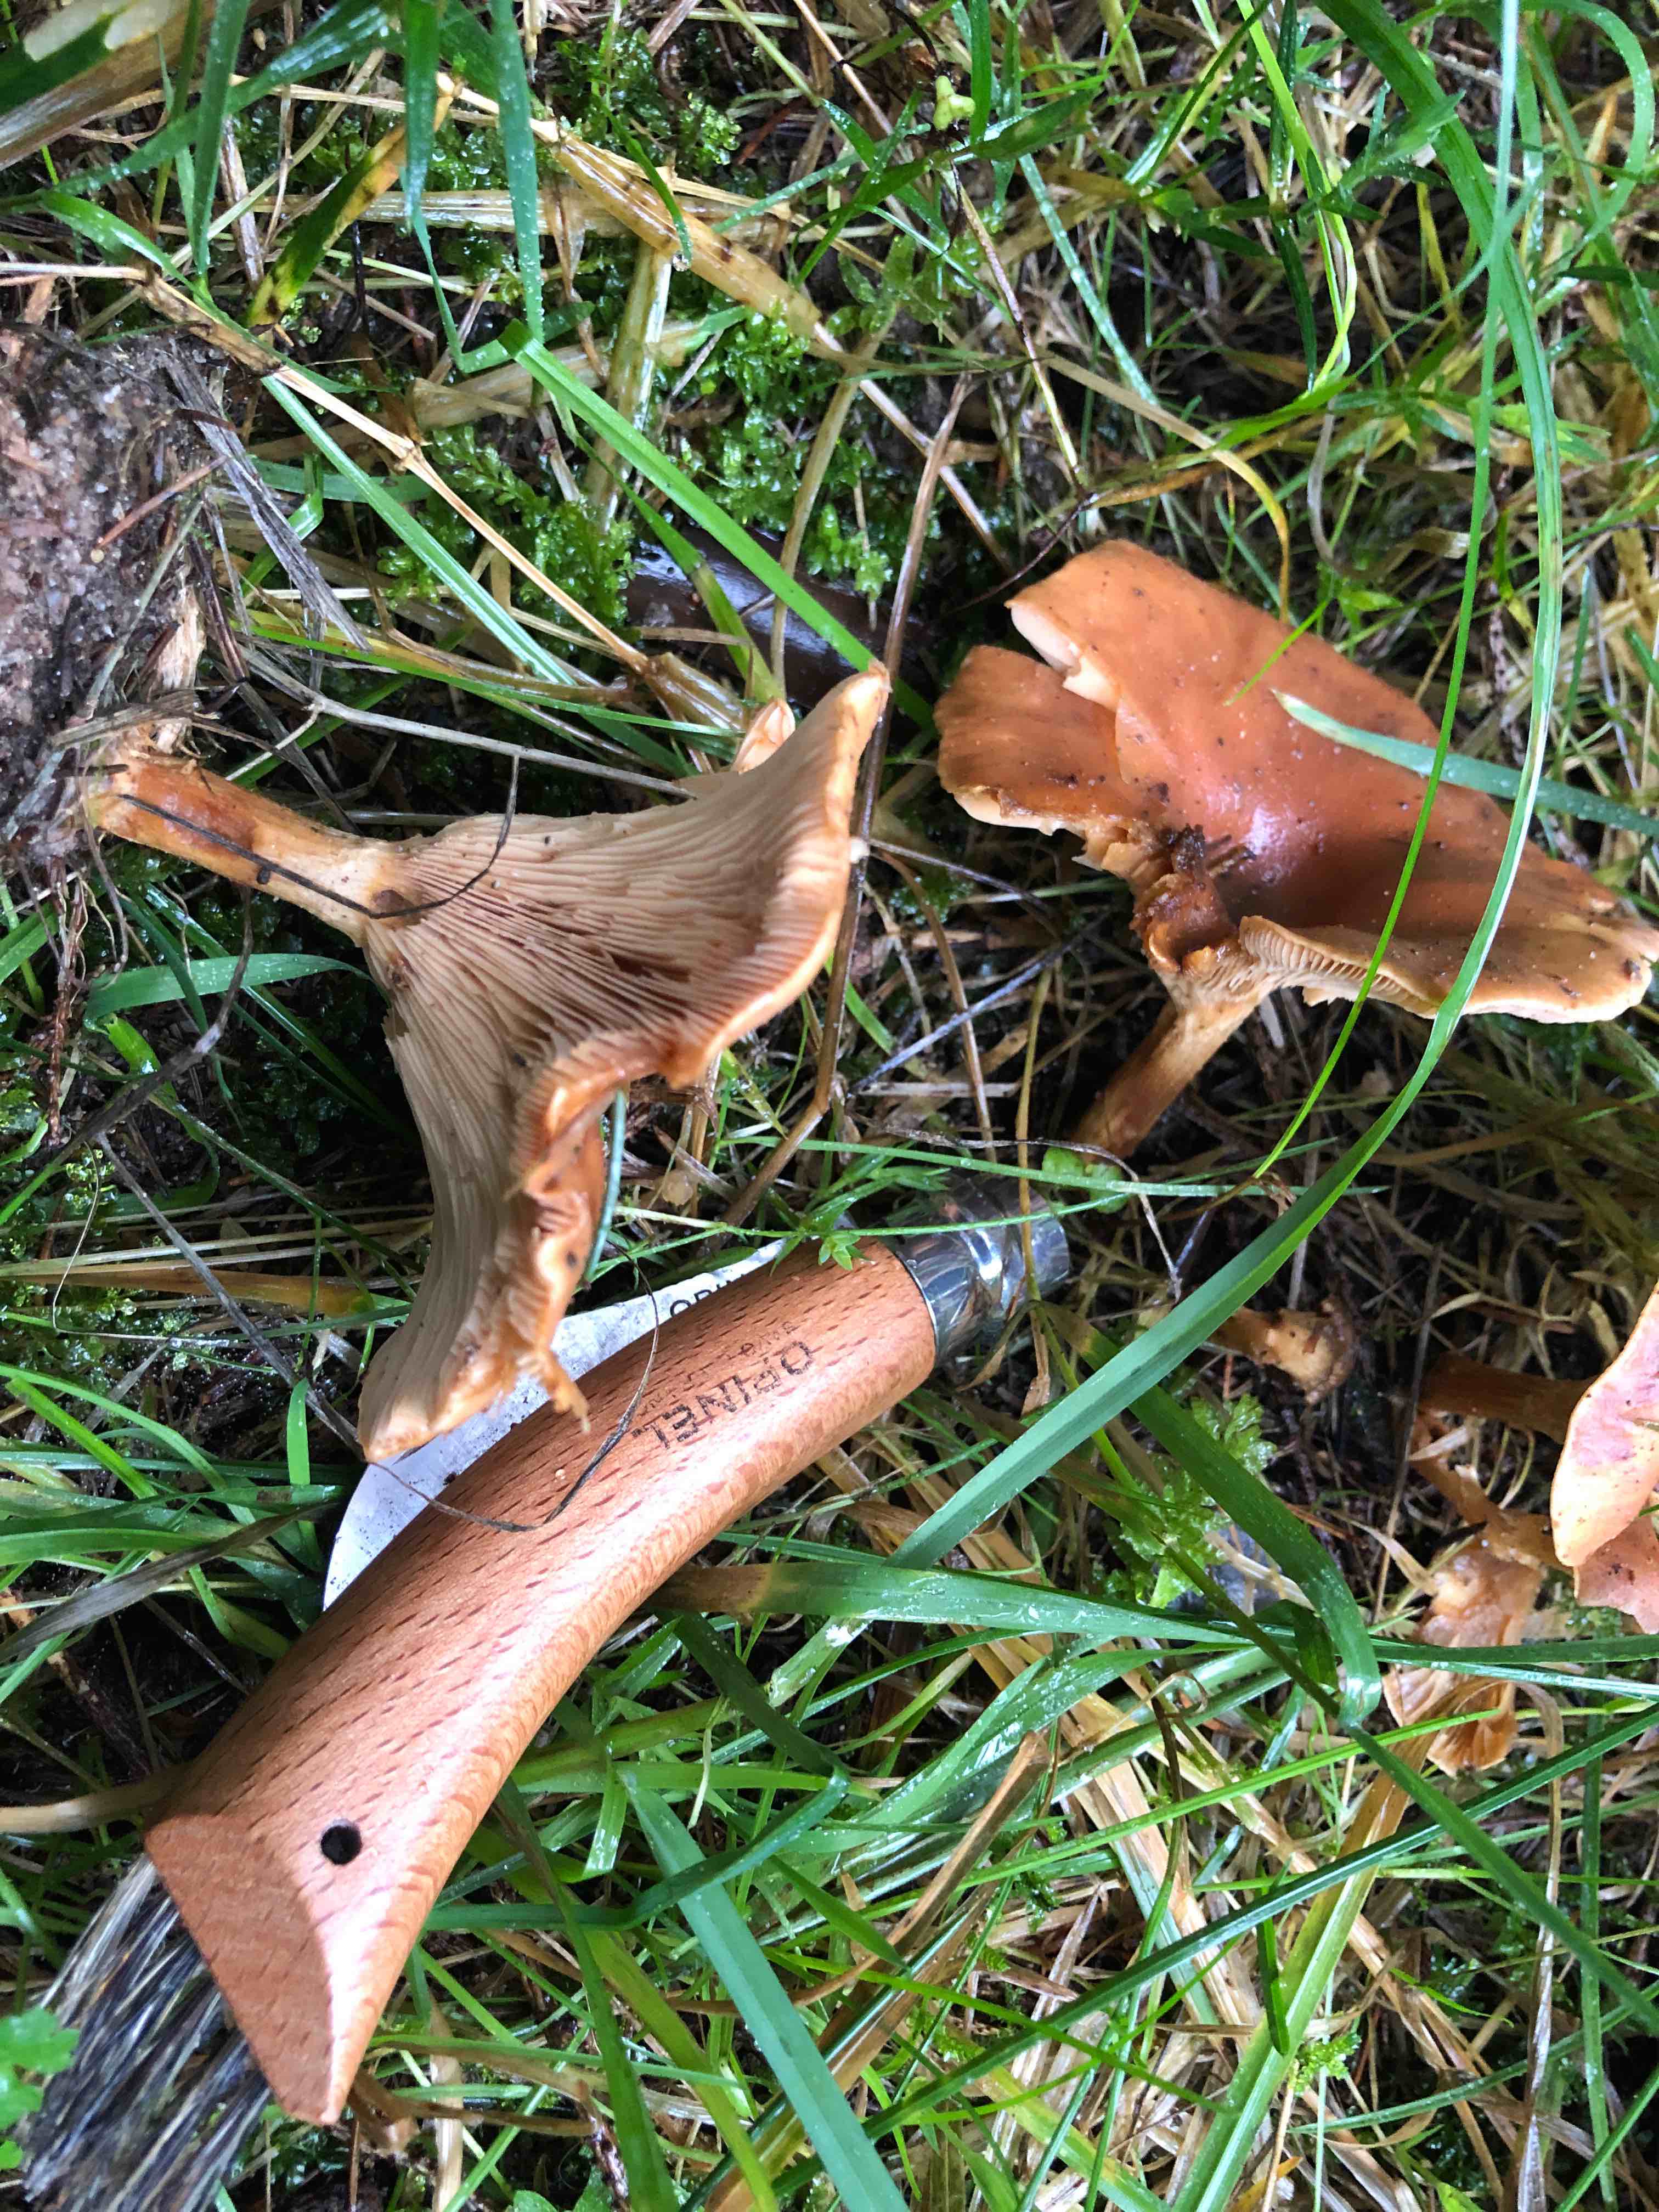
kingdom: Fungi
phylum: Basidiomycota
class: Agaricomycetes
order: Agaricales
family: Tricholomataceae
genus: Paralepista
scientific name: Paralepista flaccida
